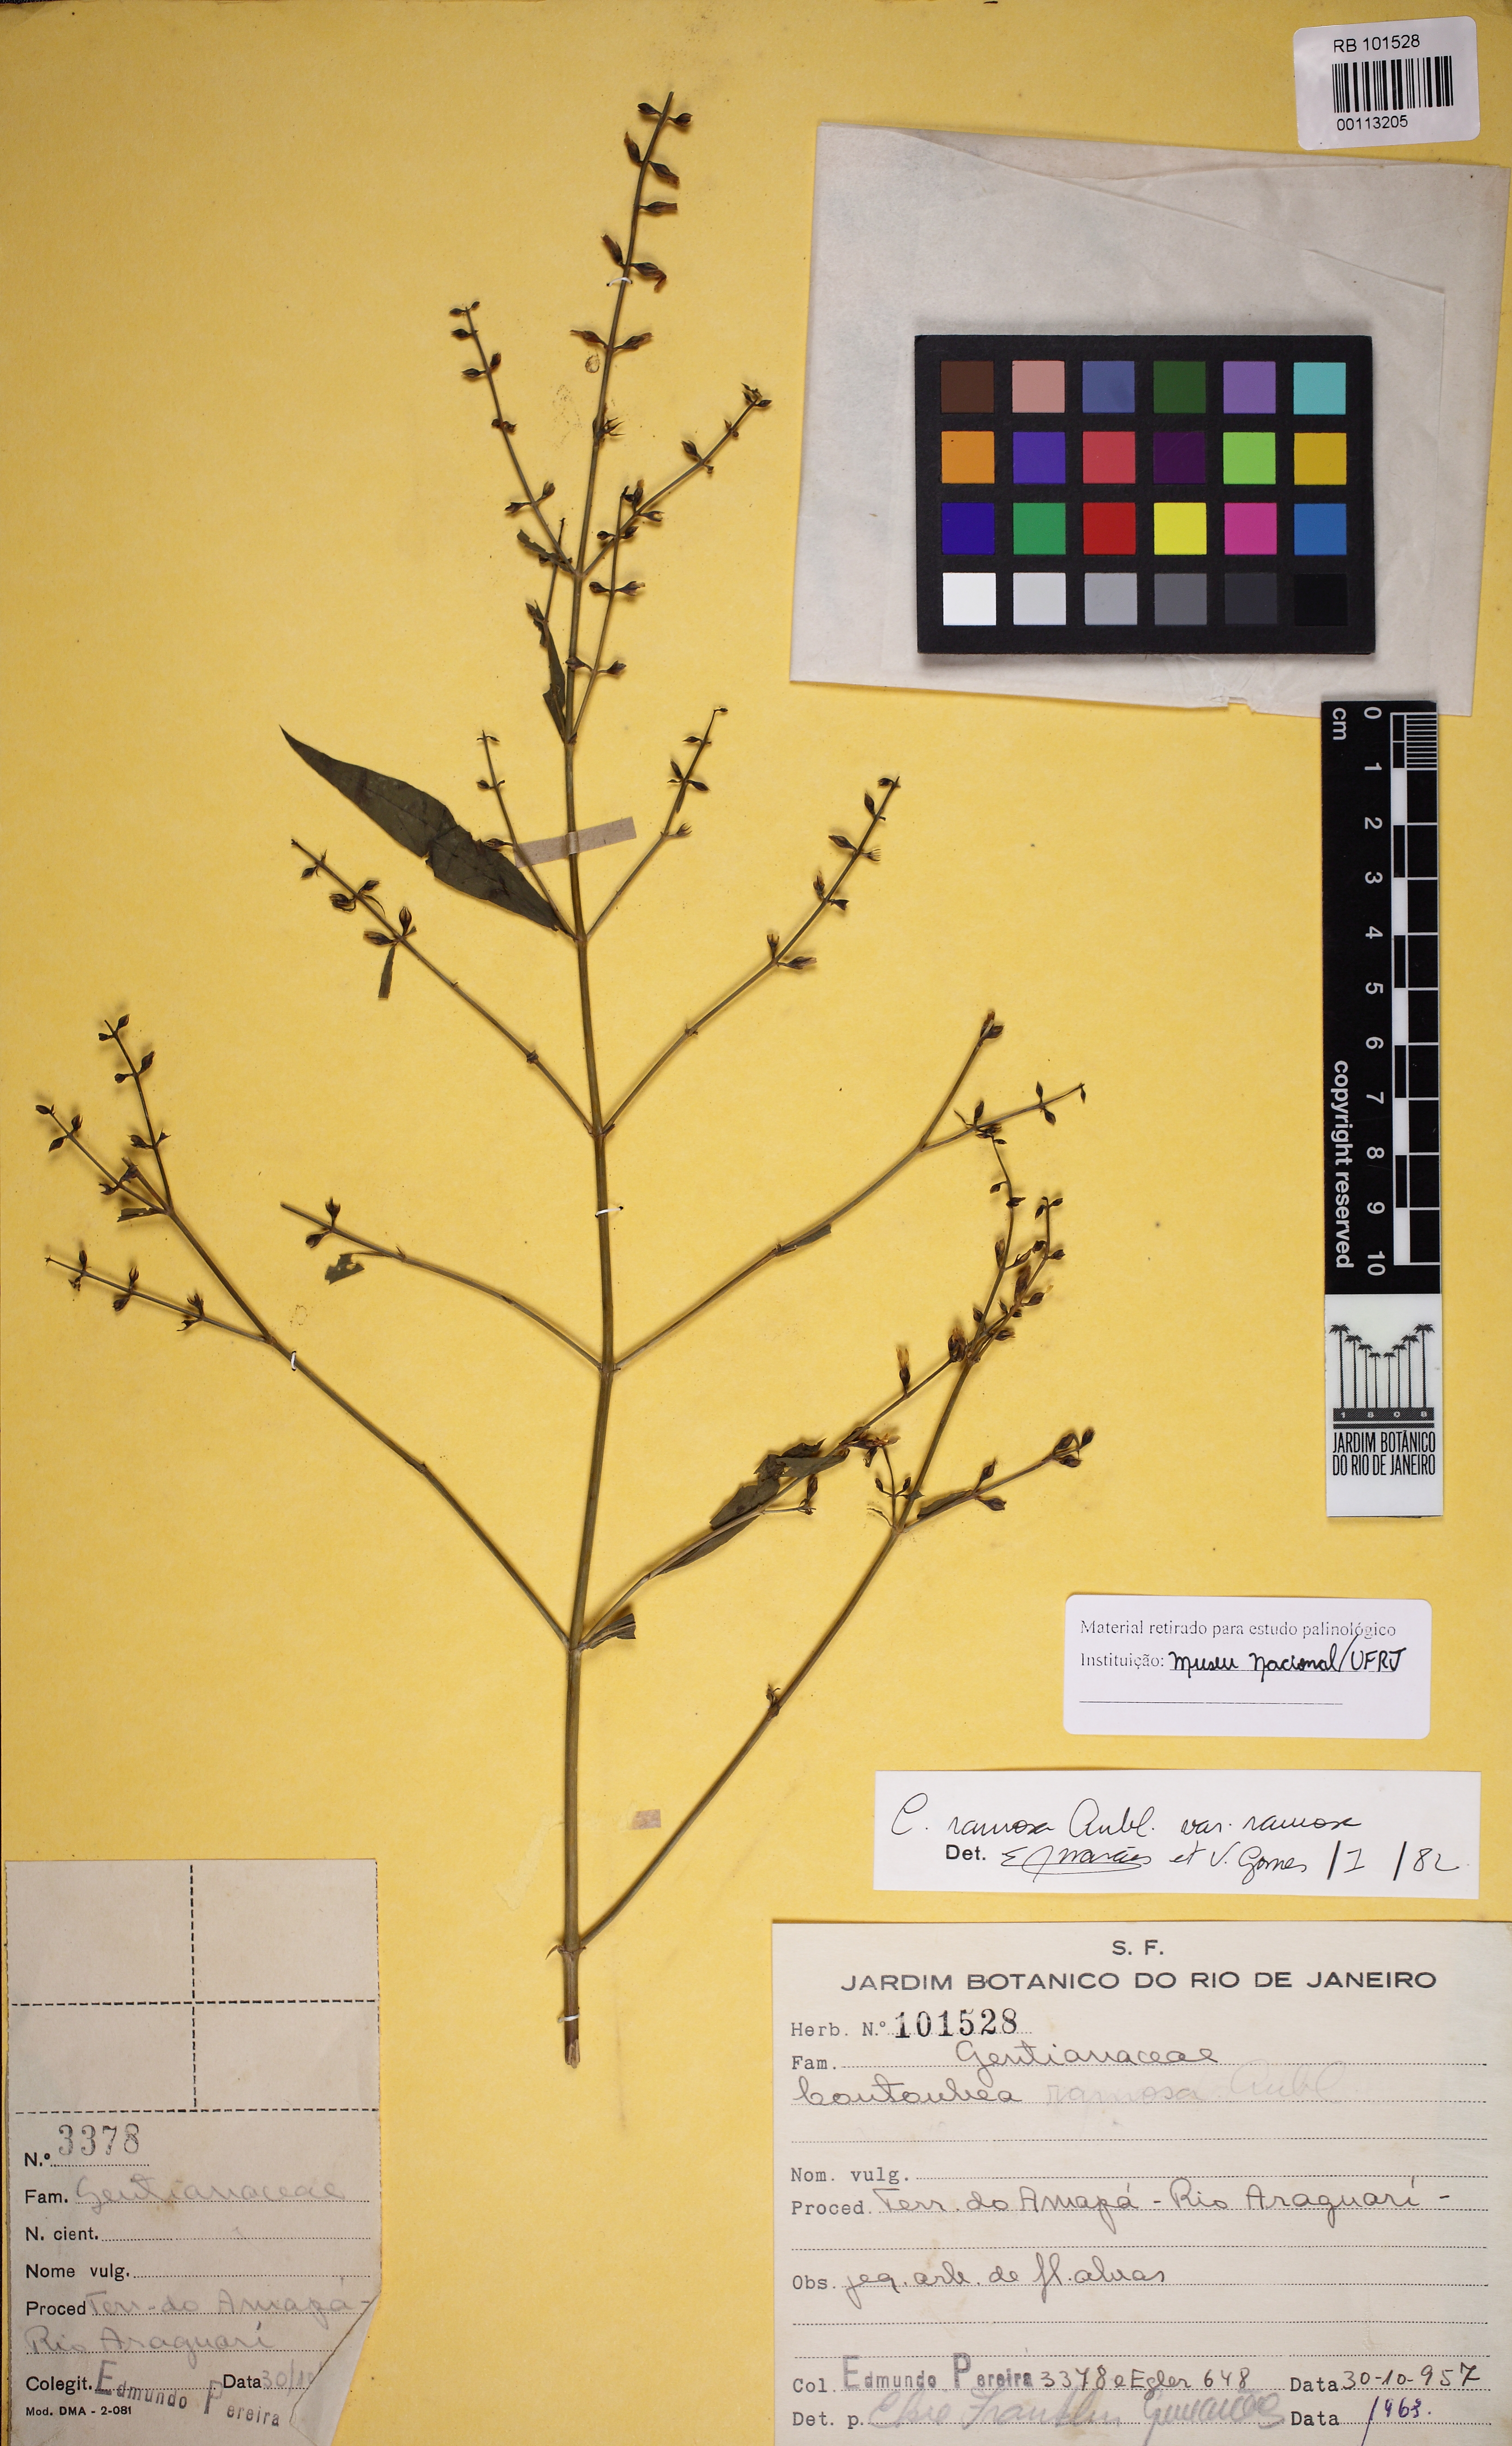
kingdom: Plantae
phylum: Tracheophyta
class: Magnoliopsida
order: Gentianales
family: Gentianaceae
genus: Coutoubea
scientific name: Coutoubea ramosa
